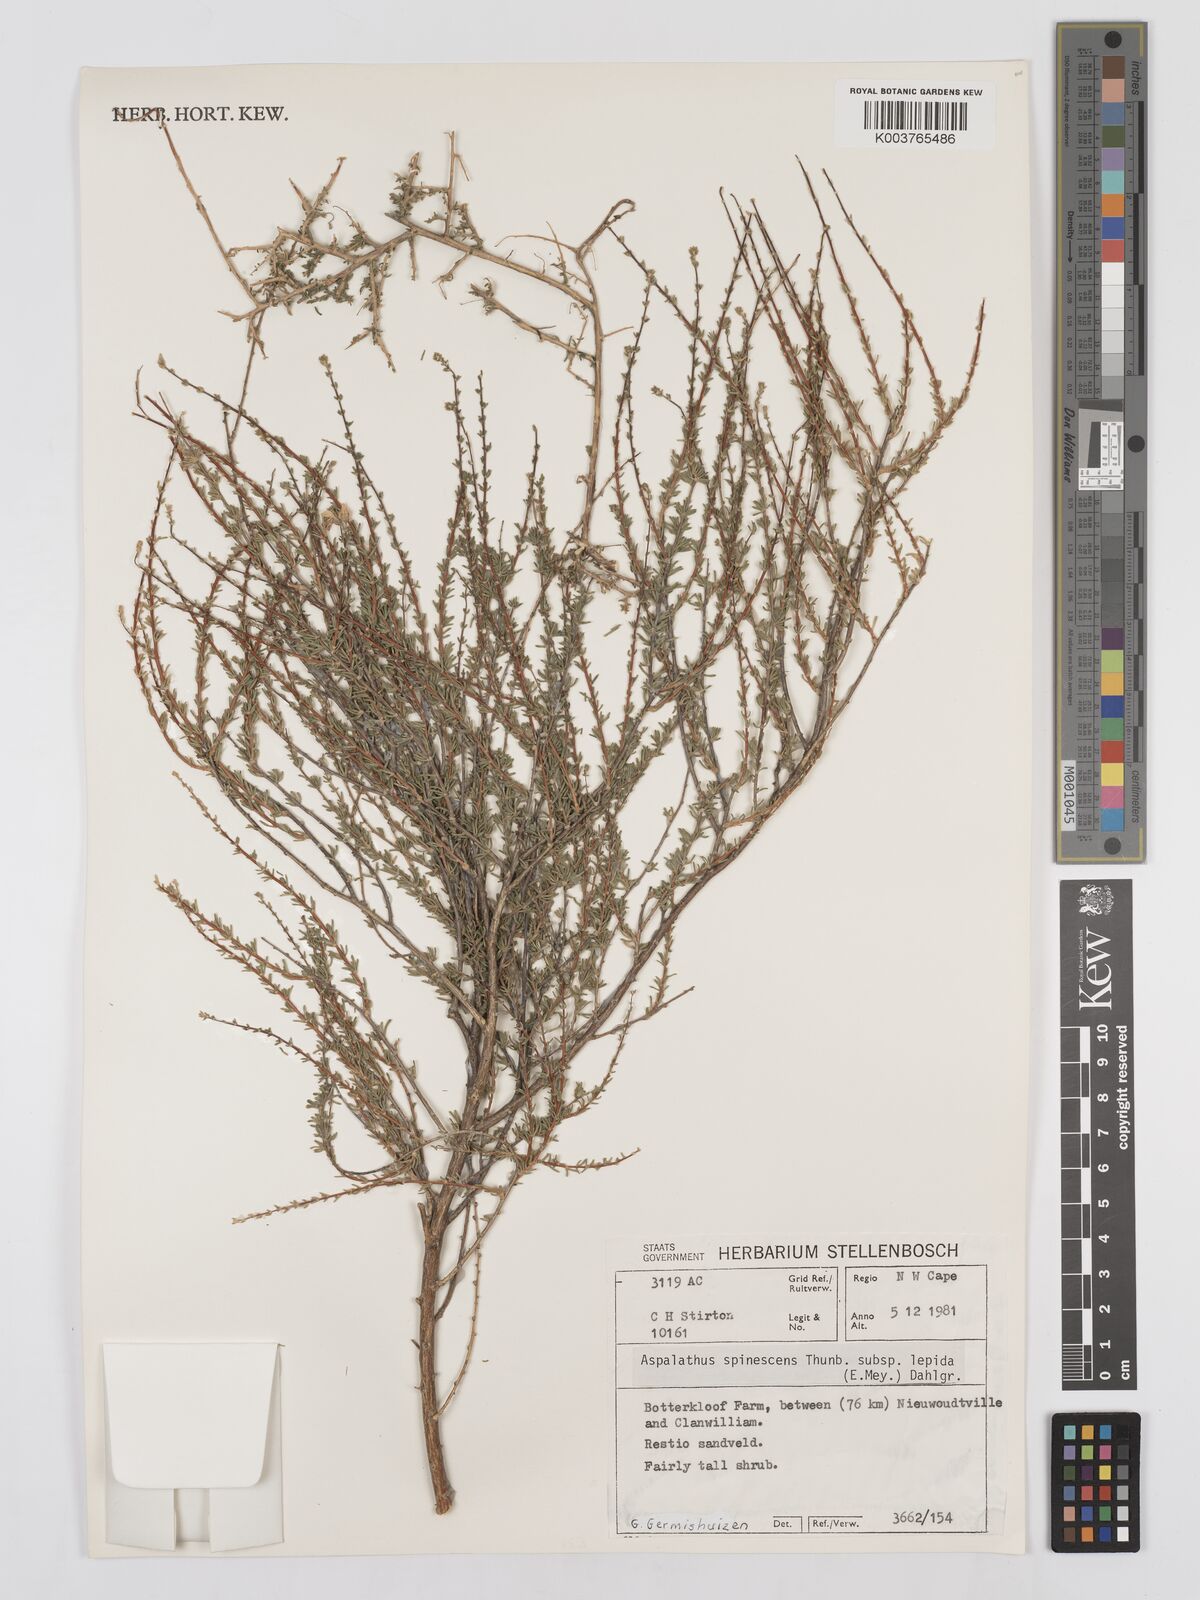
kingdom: Plantae
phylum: Tracheophyta
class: Magnoliopsida
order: Fabales
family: Fabaceae
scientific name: Fabaceae
